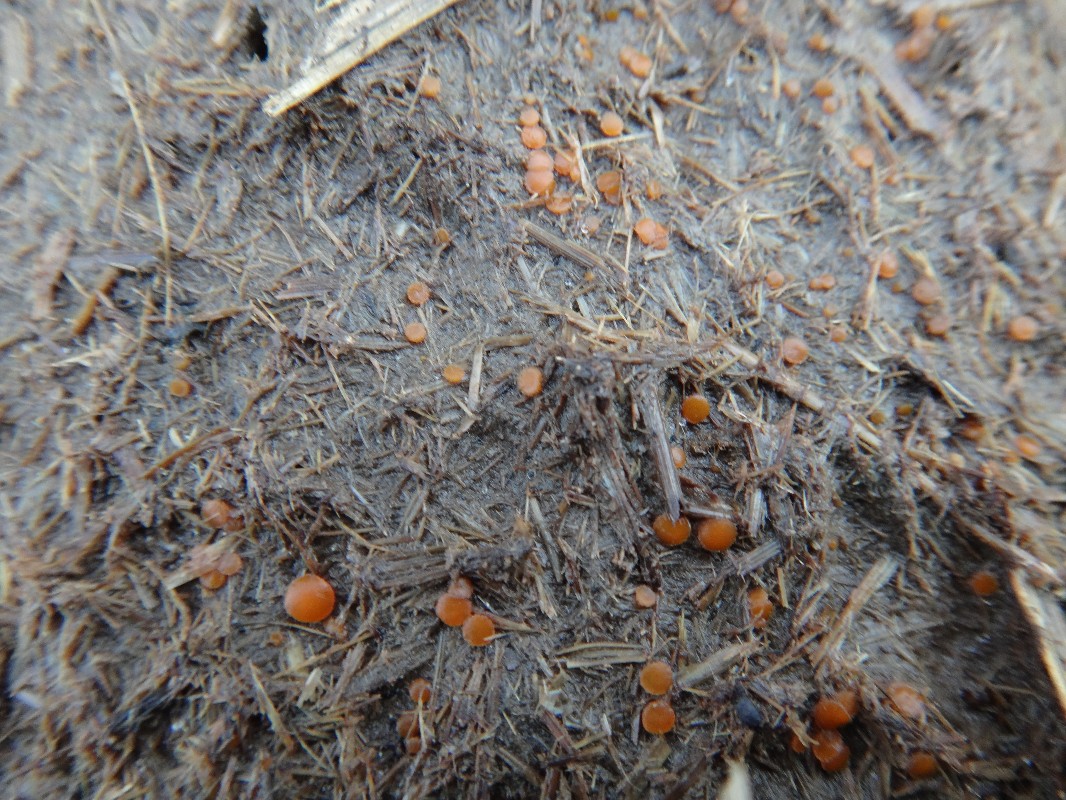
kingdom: Fungi
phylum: Ascomycota
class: Pezizomycetes
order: Pezizales
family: Pyronemataceae
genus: Cheilymenia
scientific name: Cheilymenia granulata
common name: møgbæger
